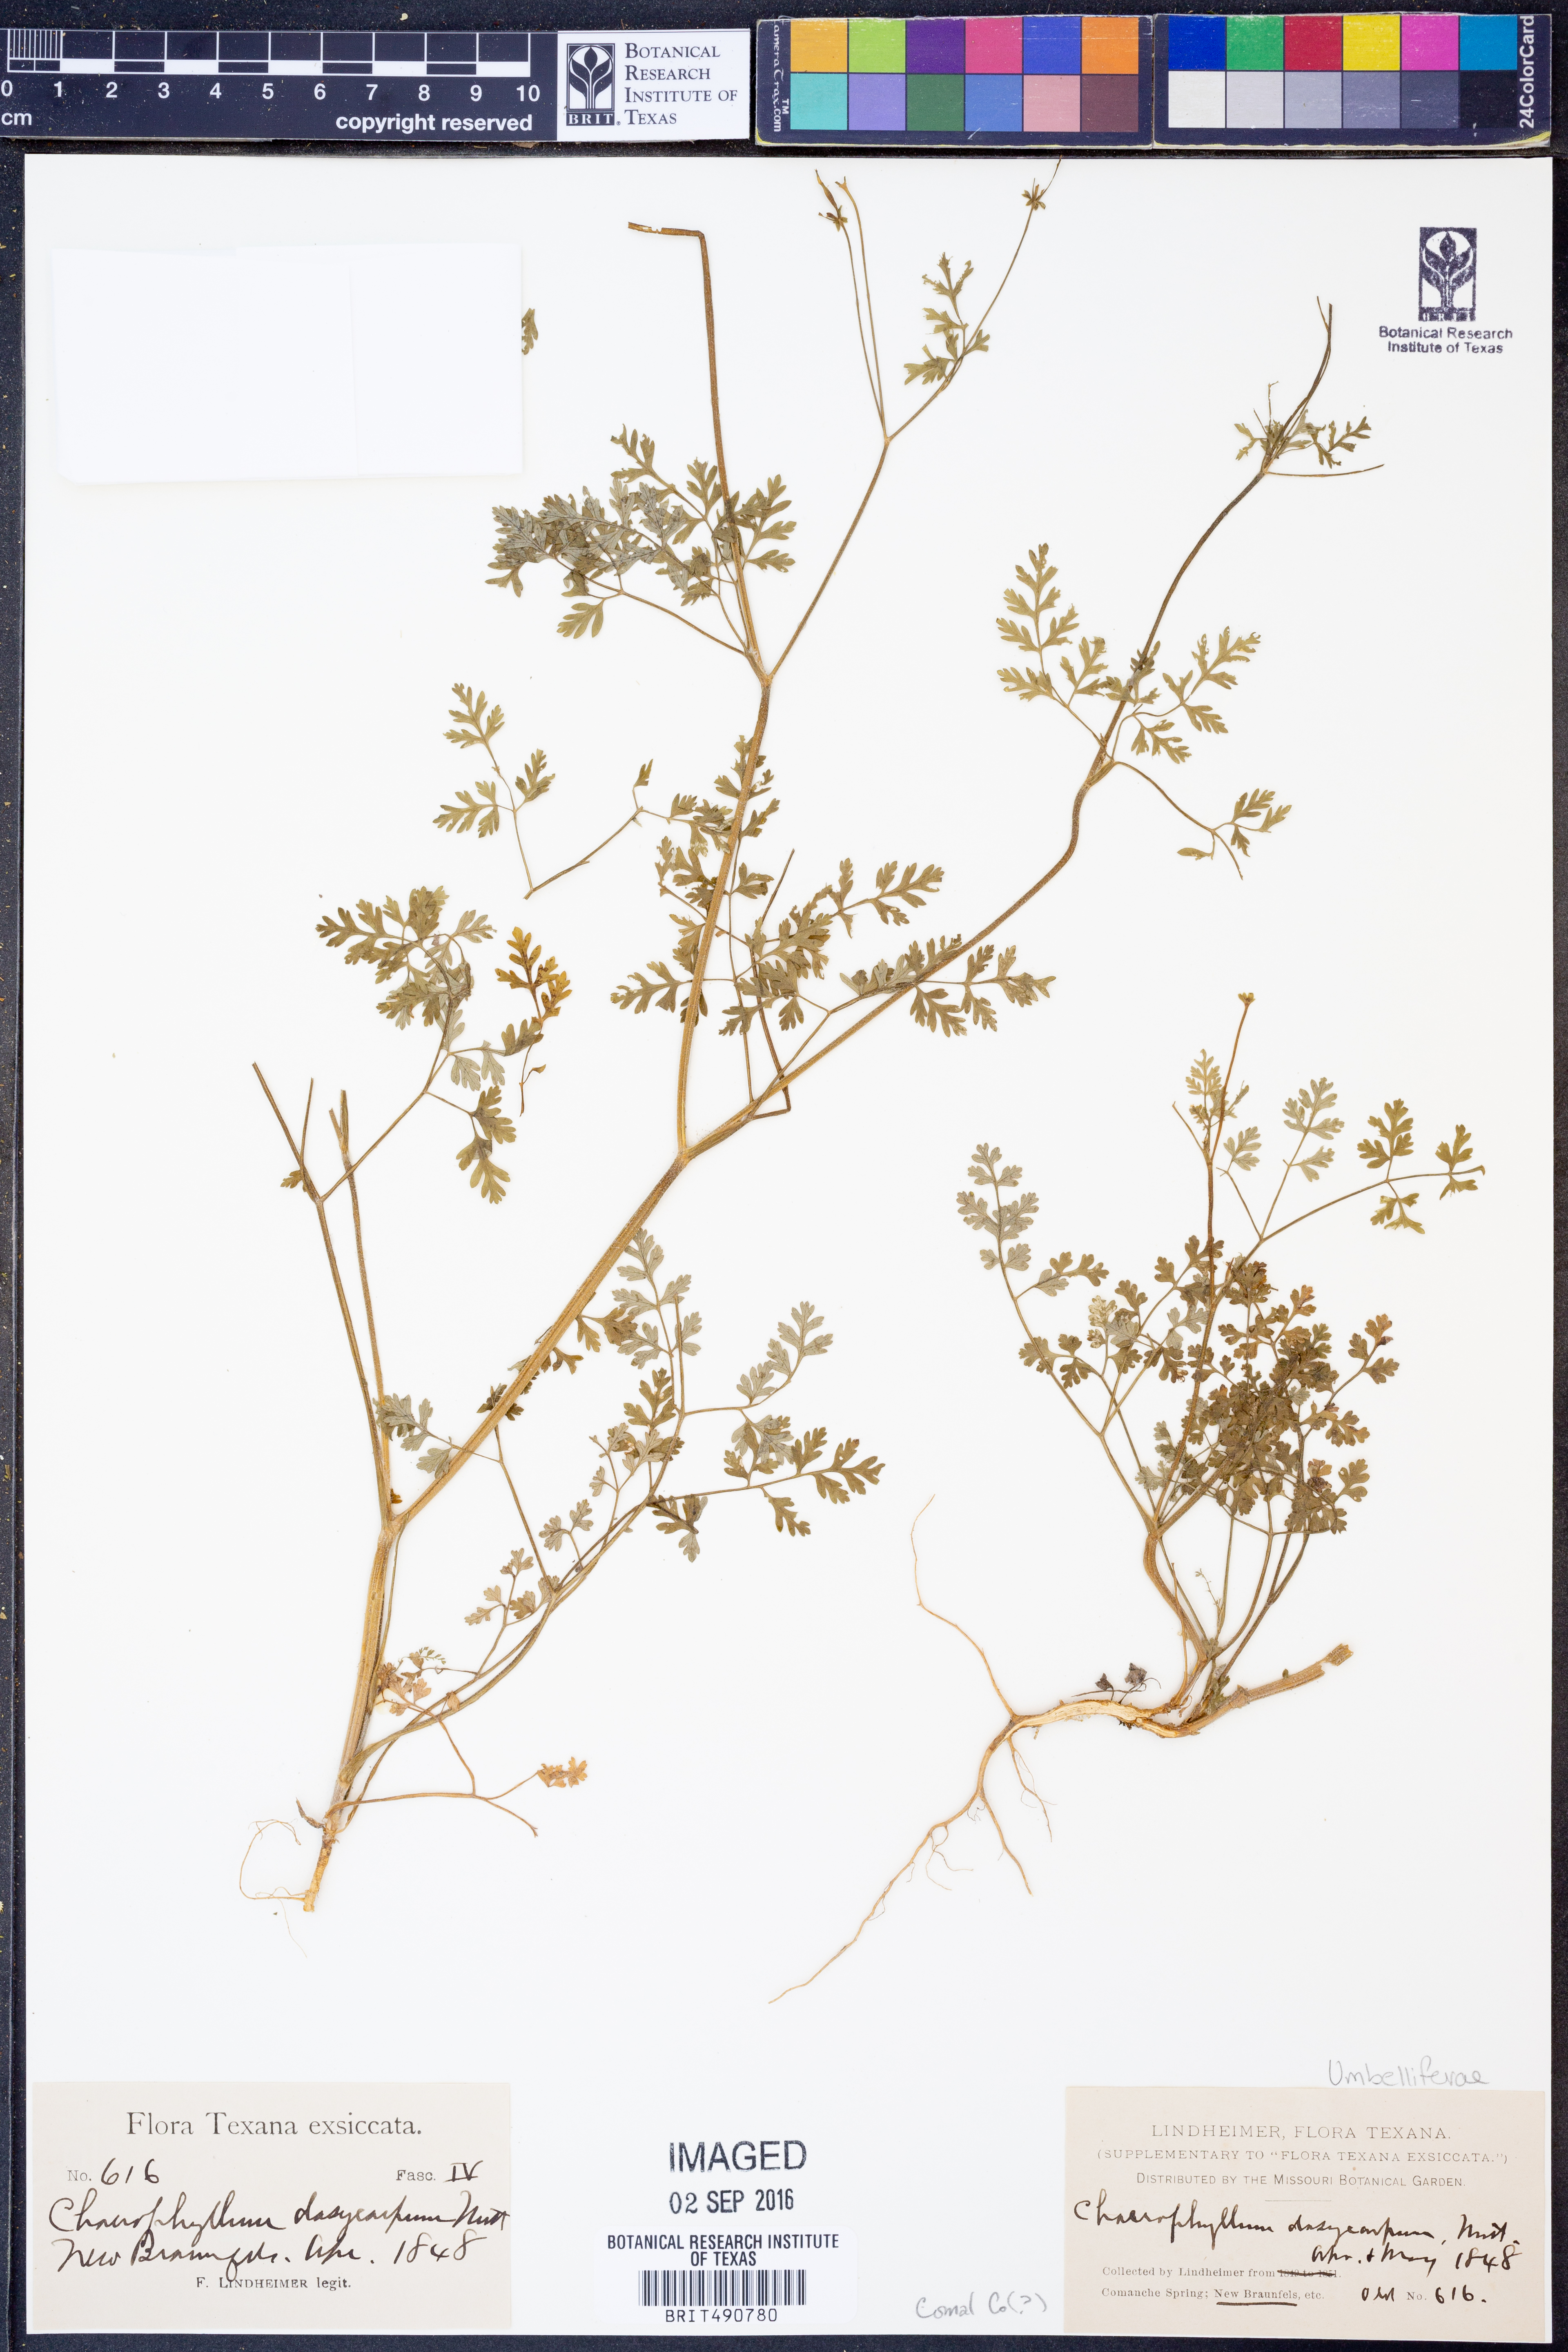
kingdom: Plantae
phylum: Tracheophyta
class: Magnoliopsida
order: Apiales
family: Apiaceae
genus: Chaerophyllum
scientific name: Chaerophyllum dasycarpum
